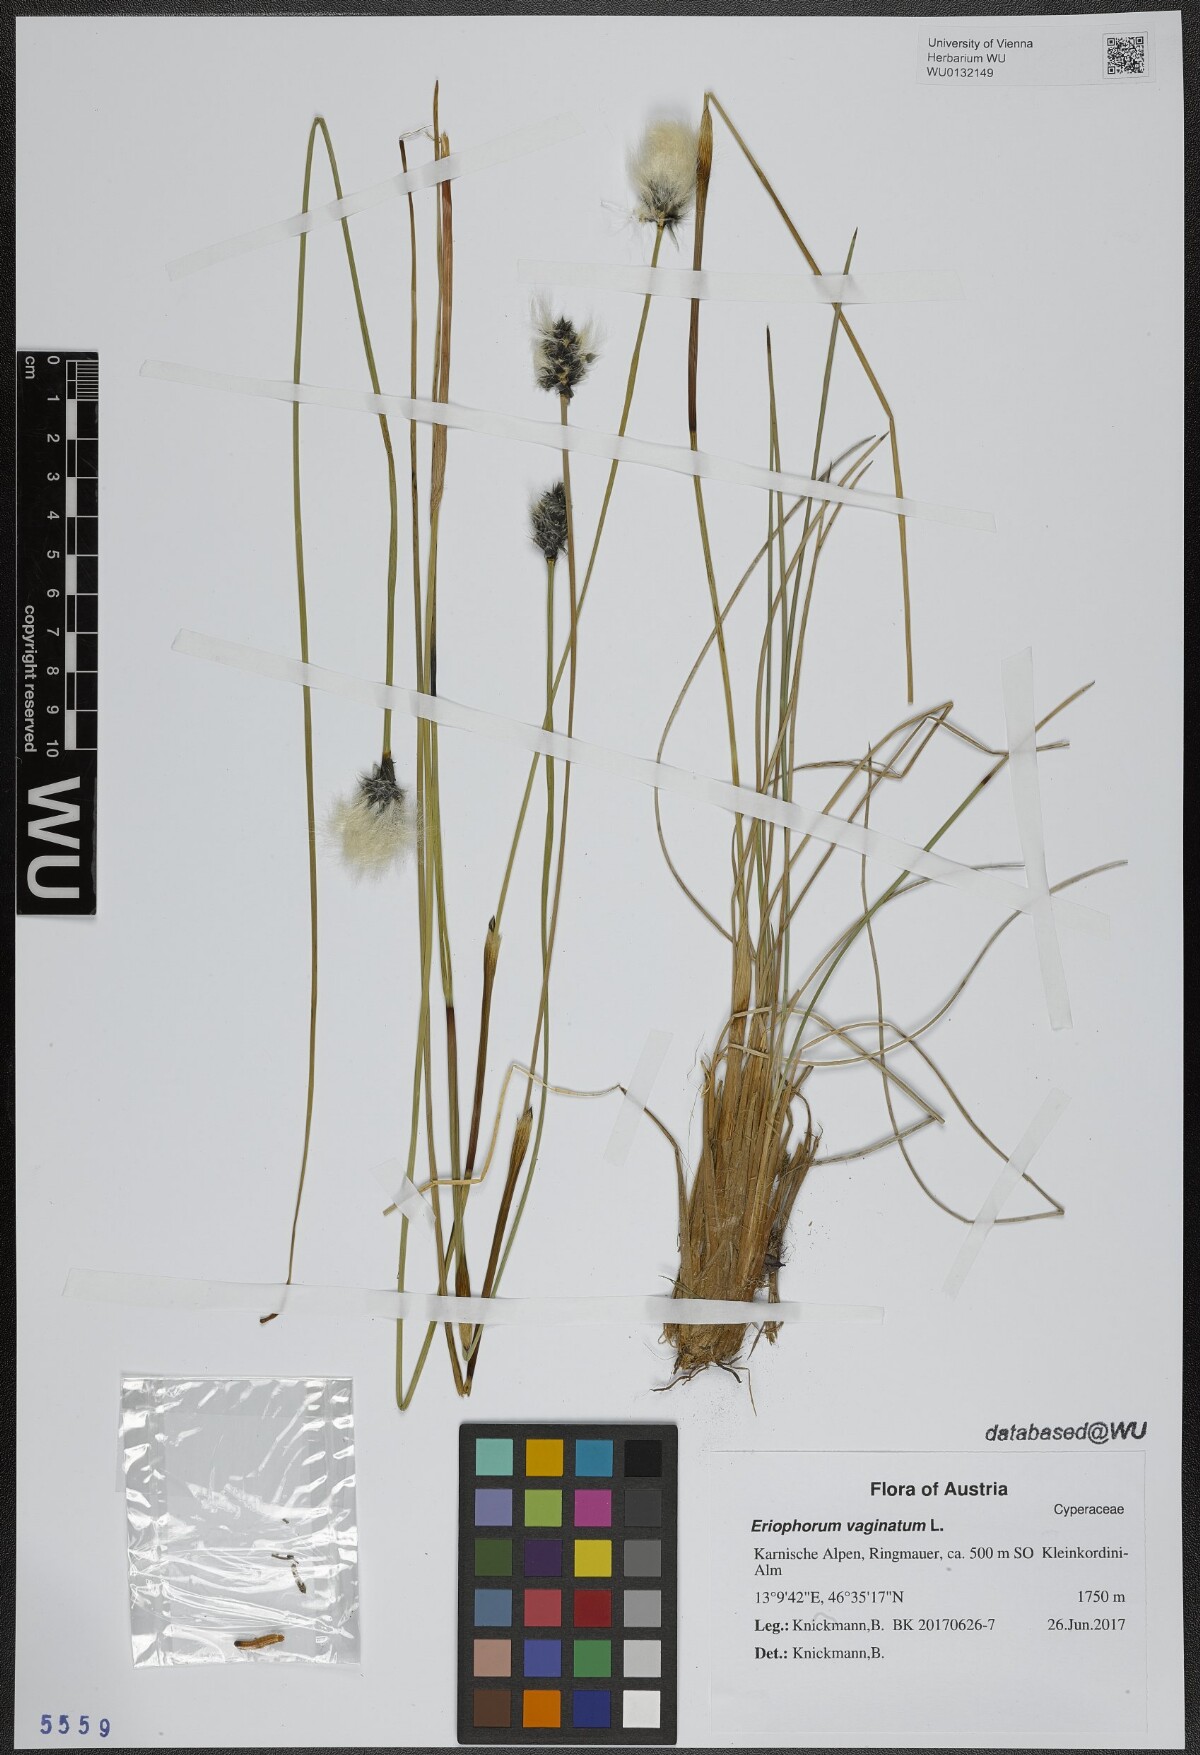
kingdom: Plantae
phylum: Tracheophyta
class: Liliopsida
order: Poales
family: Cyperaceae
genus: Eriophorum
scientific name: Eriophorum vaginatum
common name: Hare's-tail cottongrass
